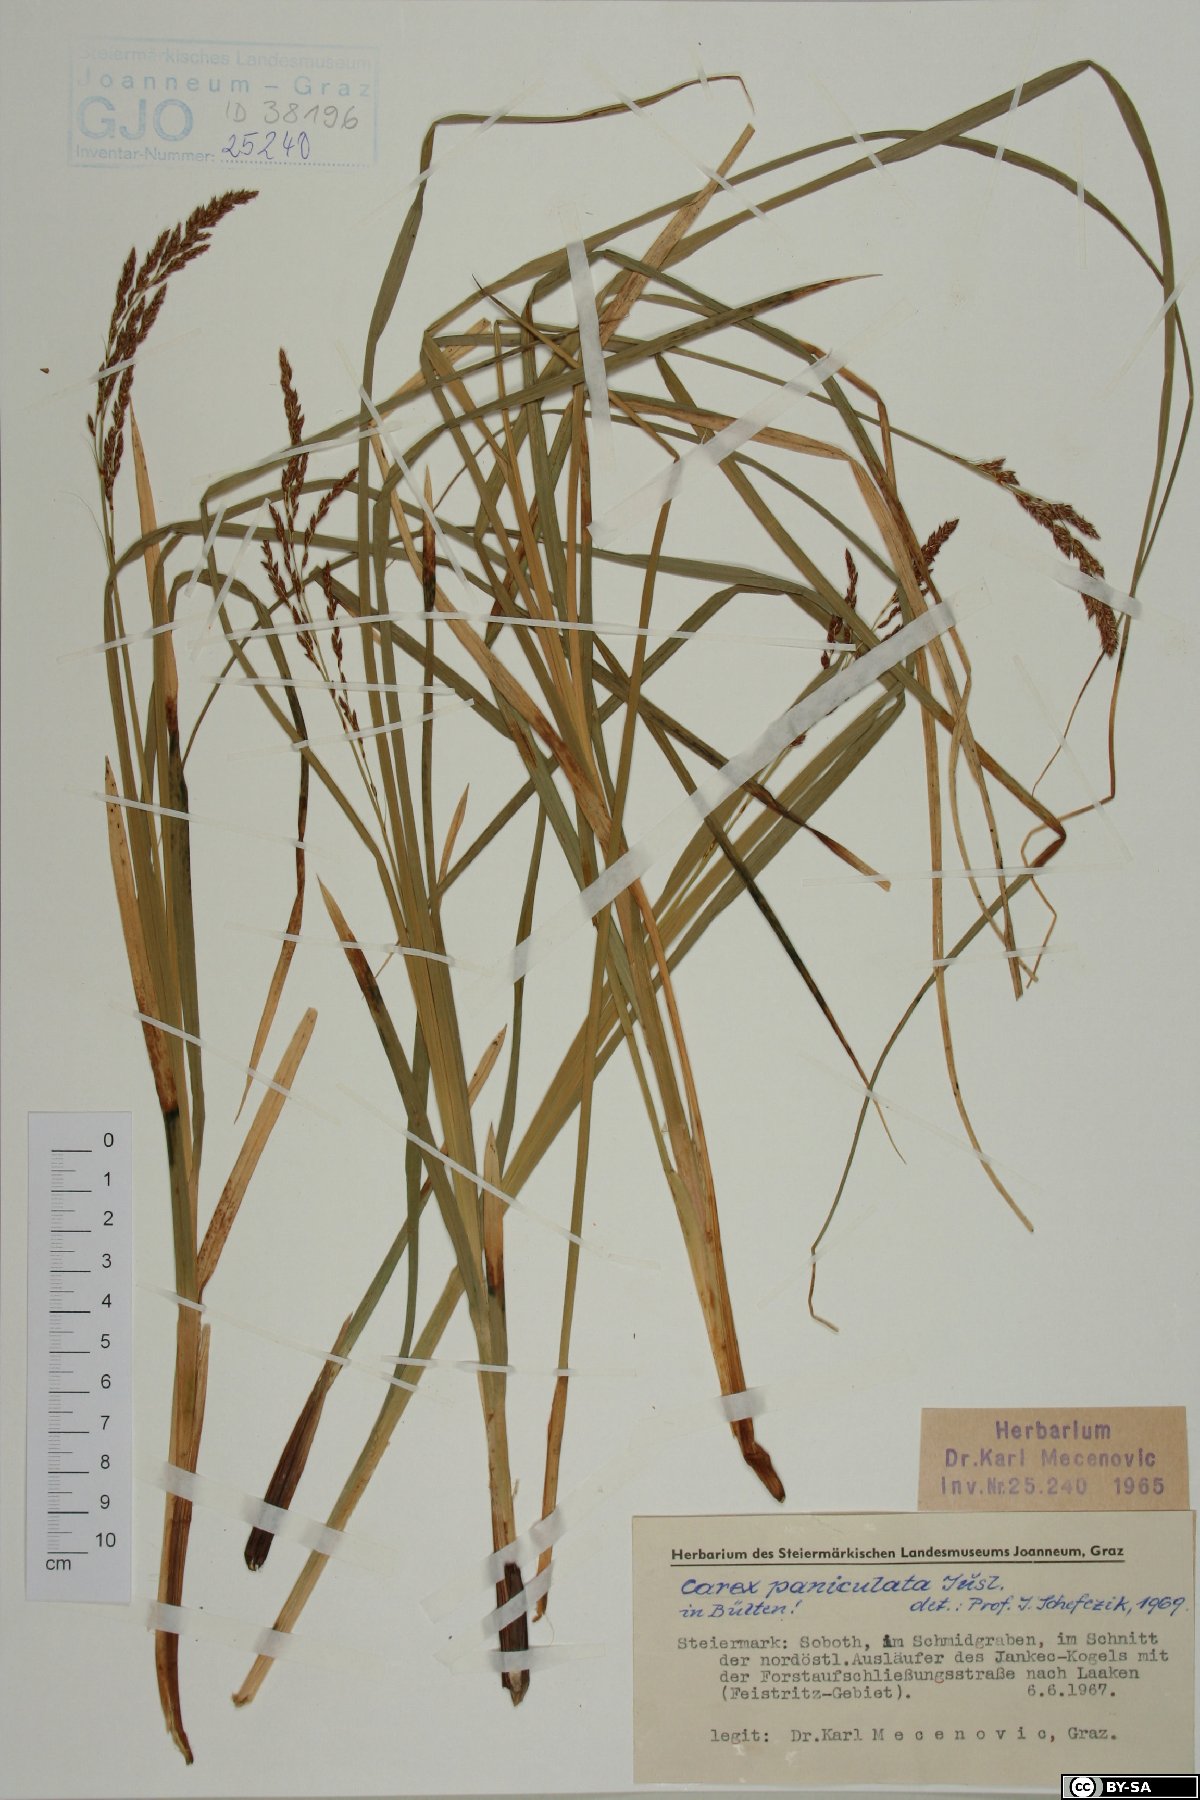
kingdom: Plantae
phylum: Tracheophyta
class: Liliopsida
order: Poales
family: Cyperaceae
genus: Carex
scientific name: Carex paniculata
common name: Greater tussock-sedge
